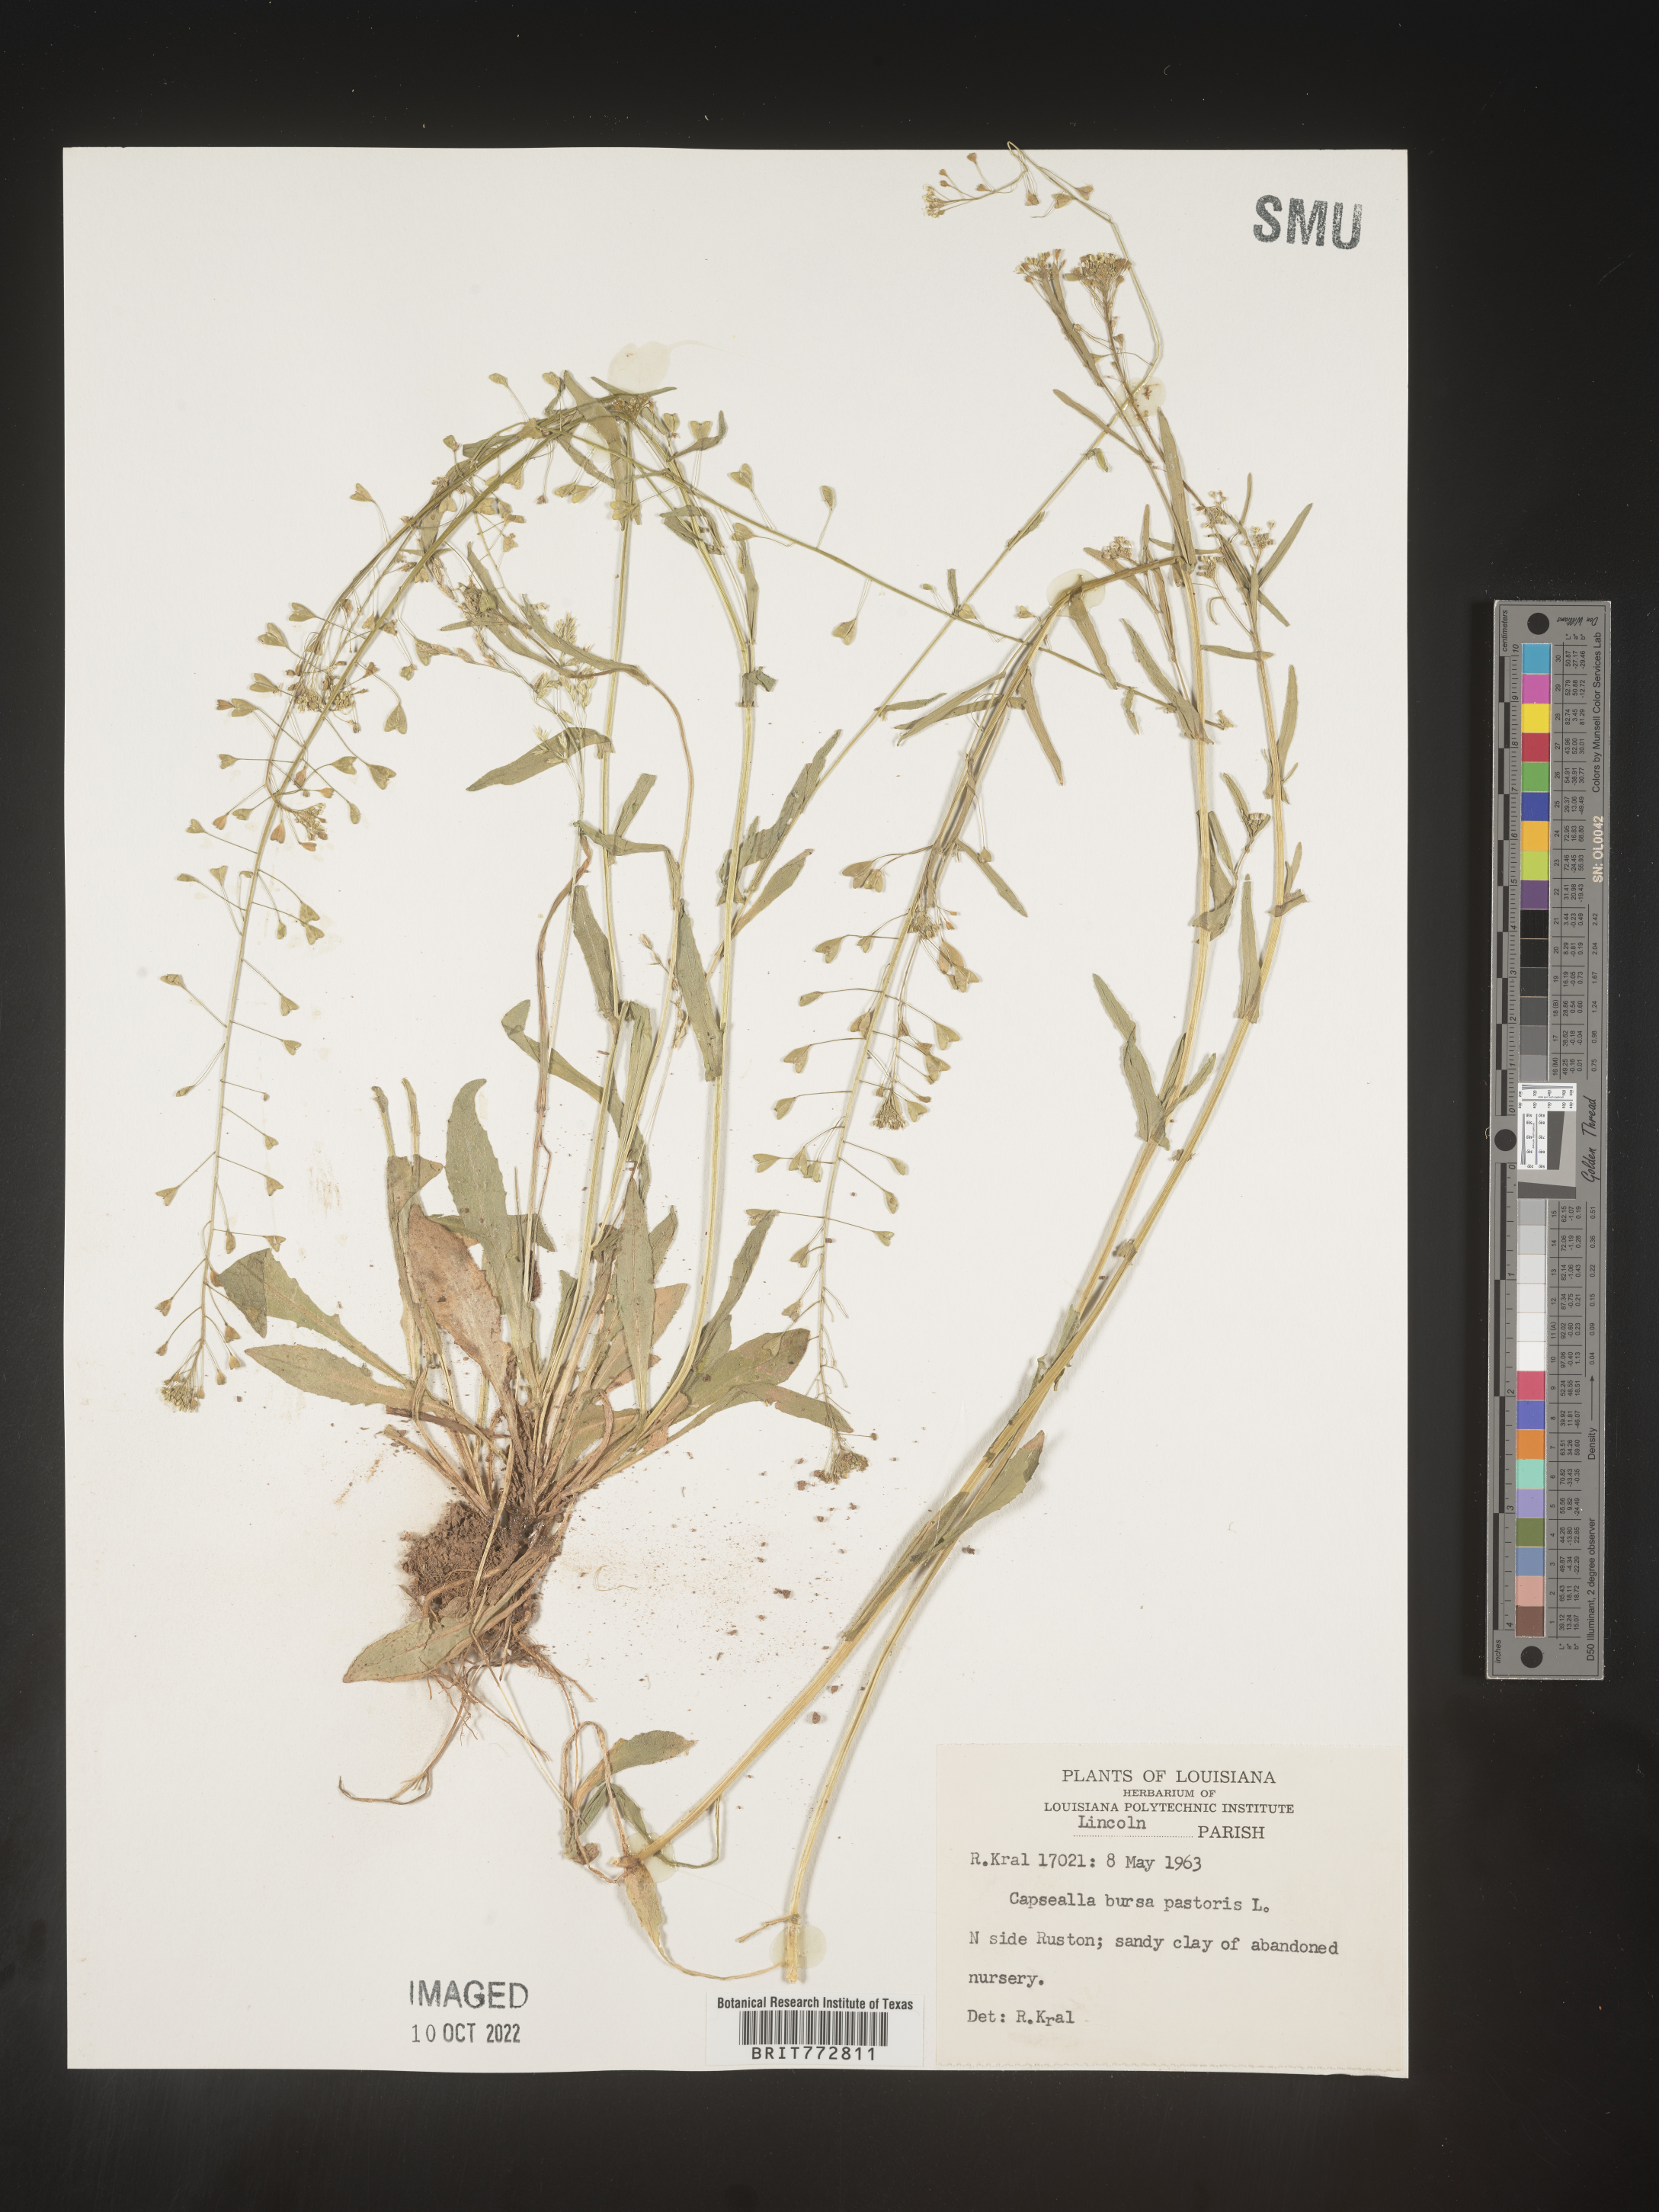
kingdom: Plantae
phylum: Tracheophyta
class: Magnoliopsida
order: Brassicales
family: Brassicaceae
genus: Capsella
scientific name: Capsella bursa-pastoris
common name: Shepherd's purse
